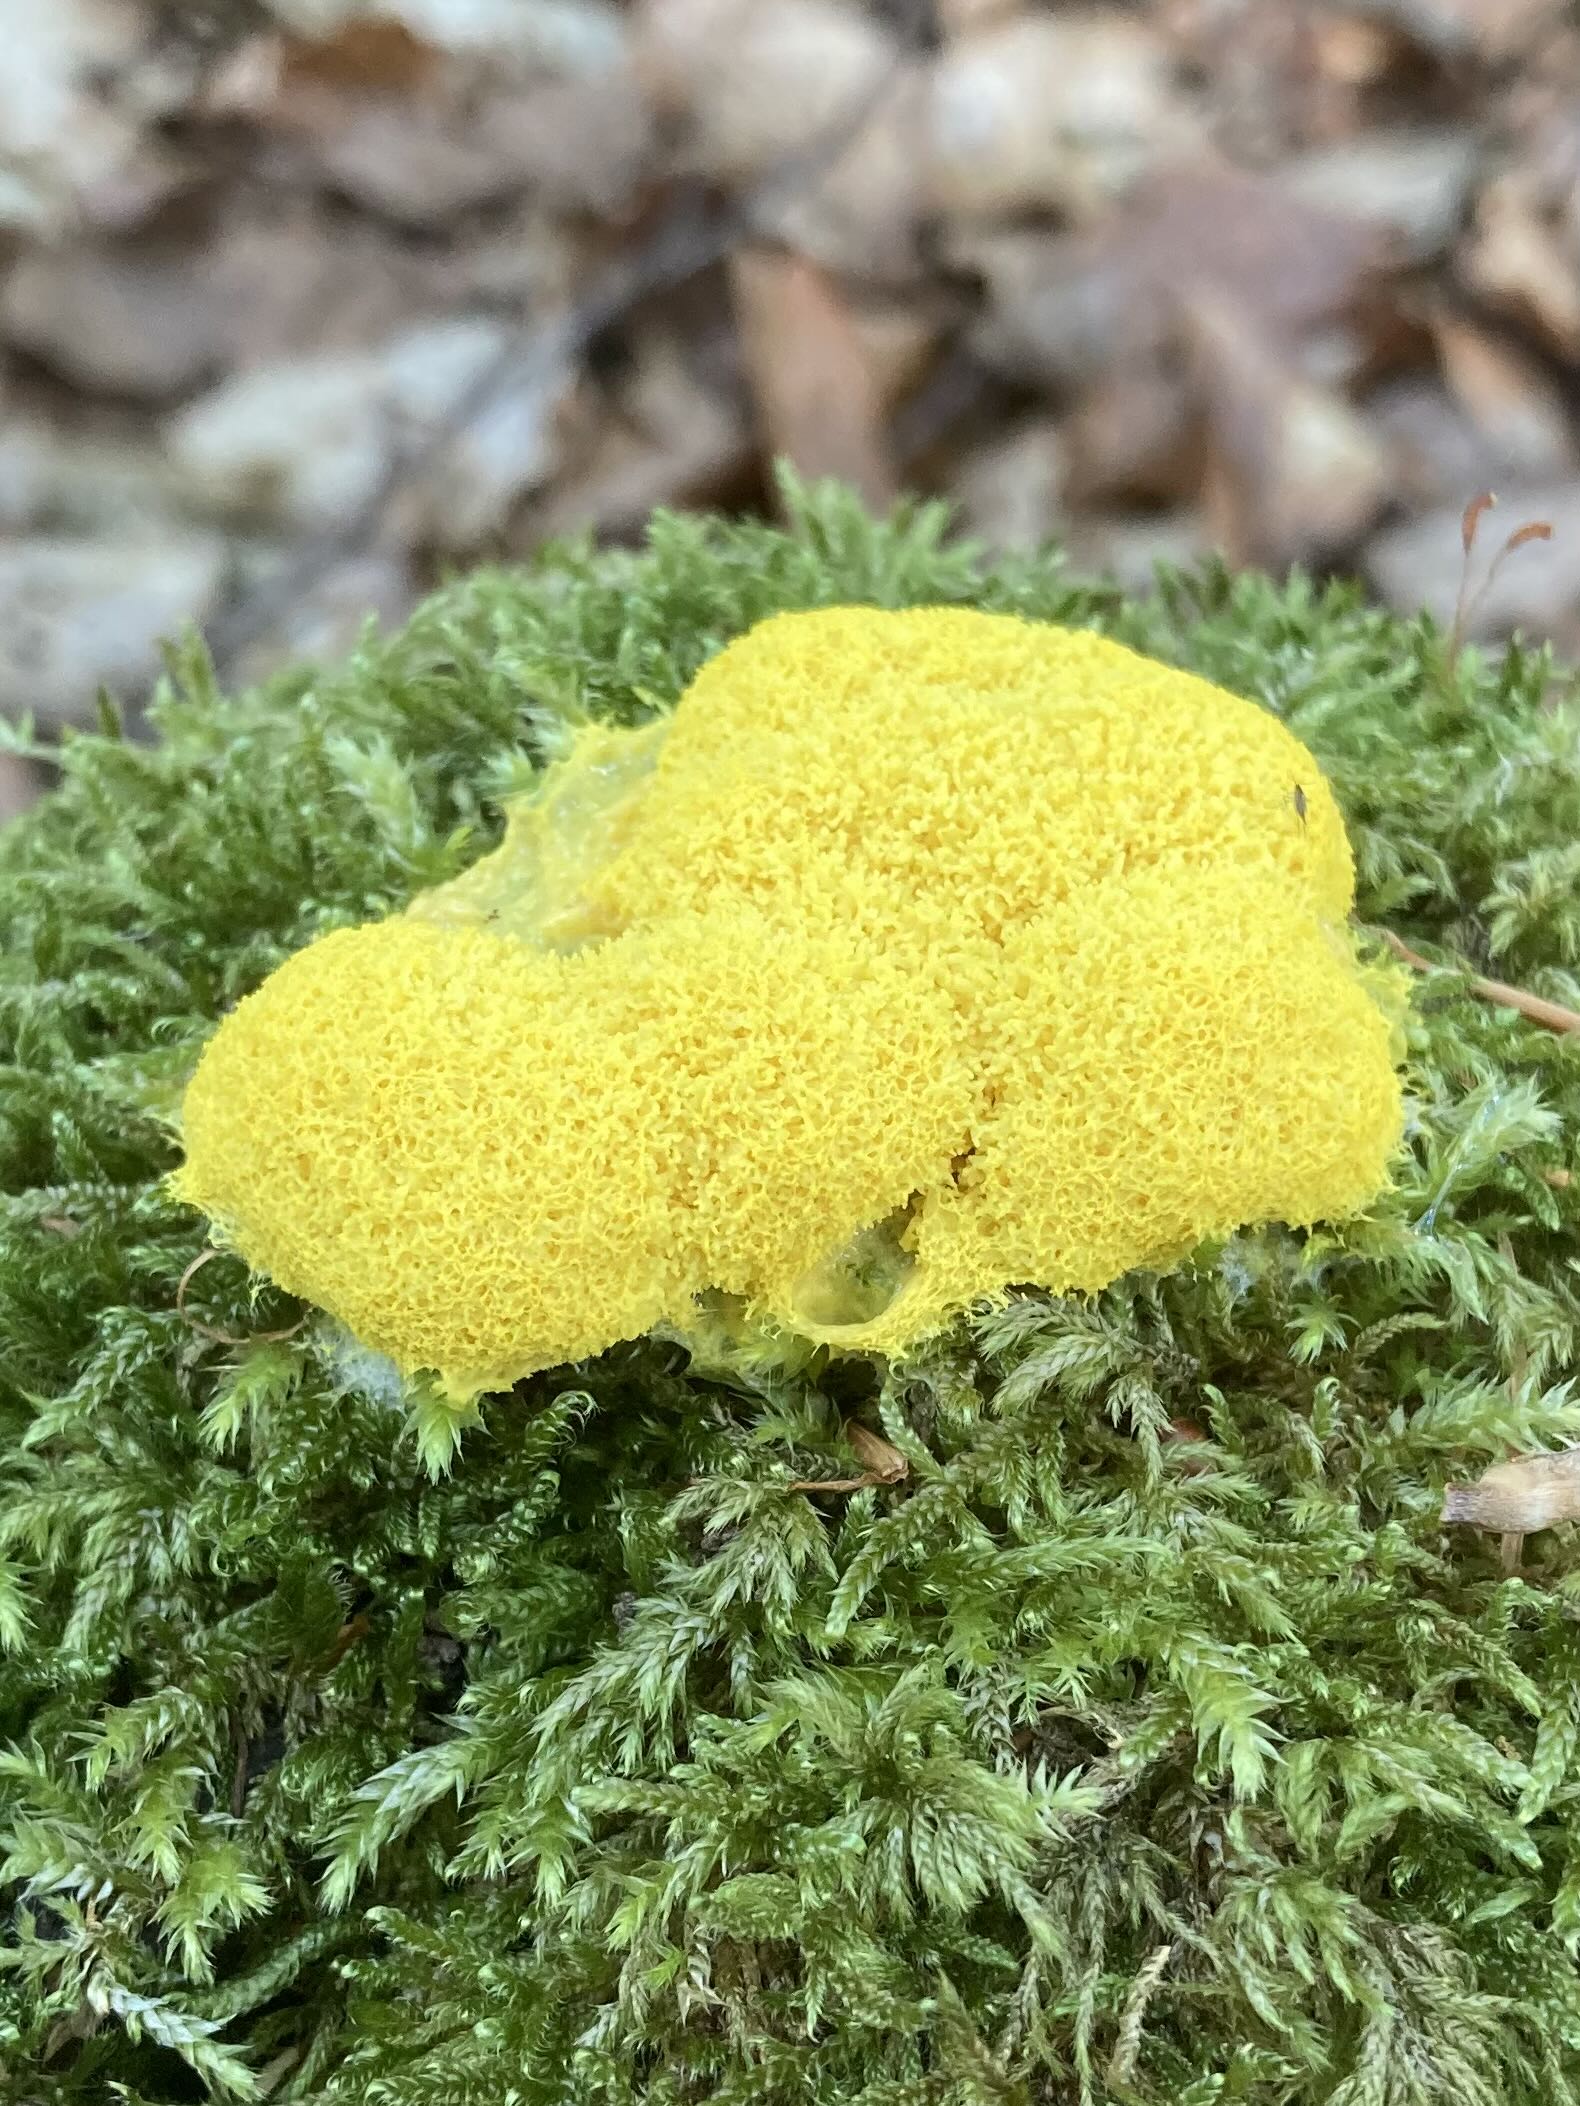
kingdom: Protozoa
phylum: Mycetozoa
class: Myxomycetes
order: Physarales
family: Physaraceae
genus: Fuligo
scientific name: Fuligo septica
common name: gul troldsmør
